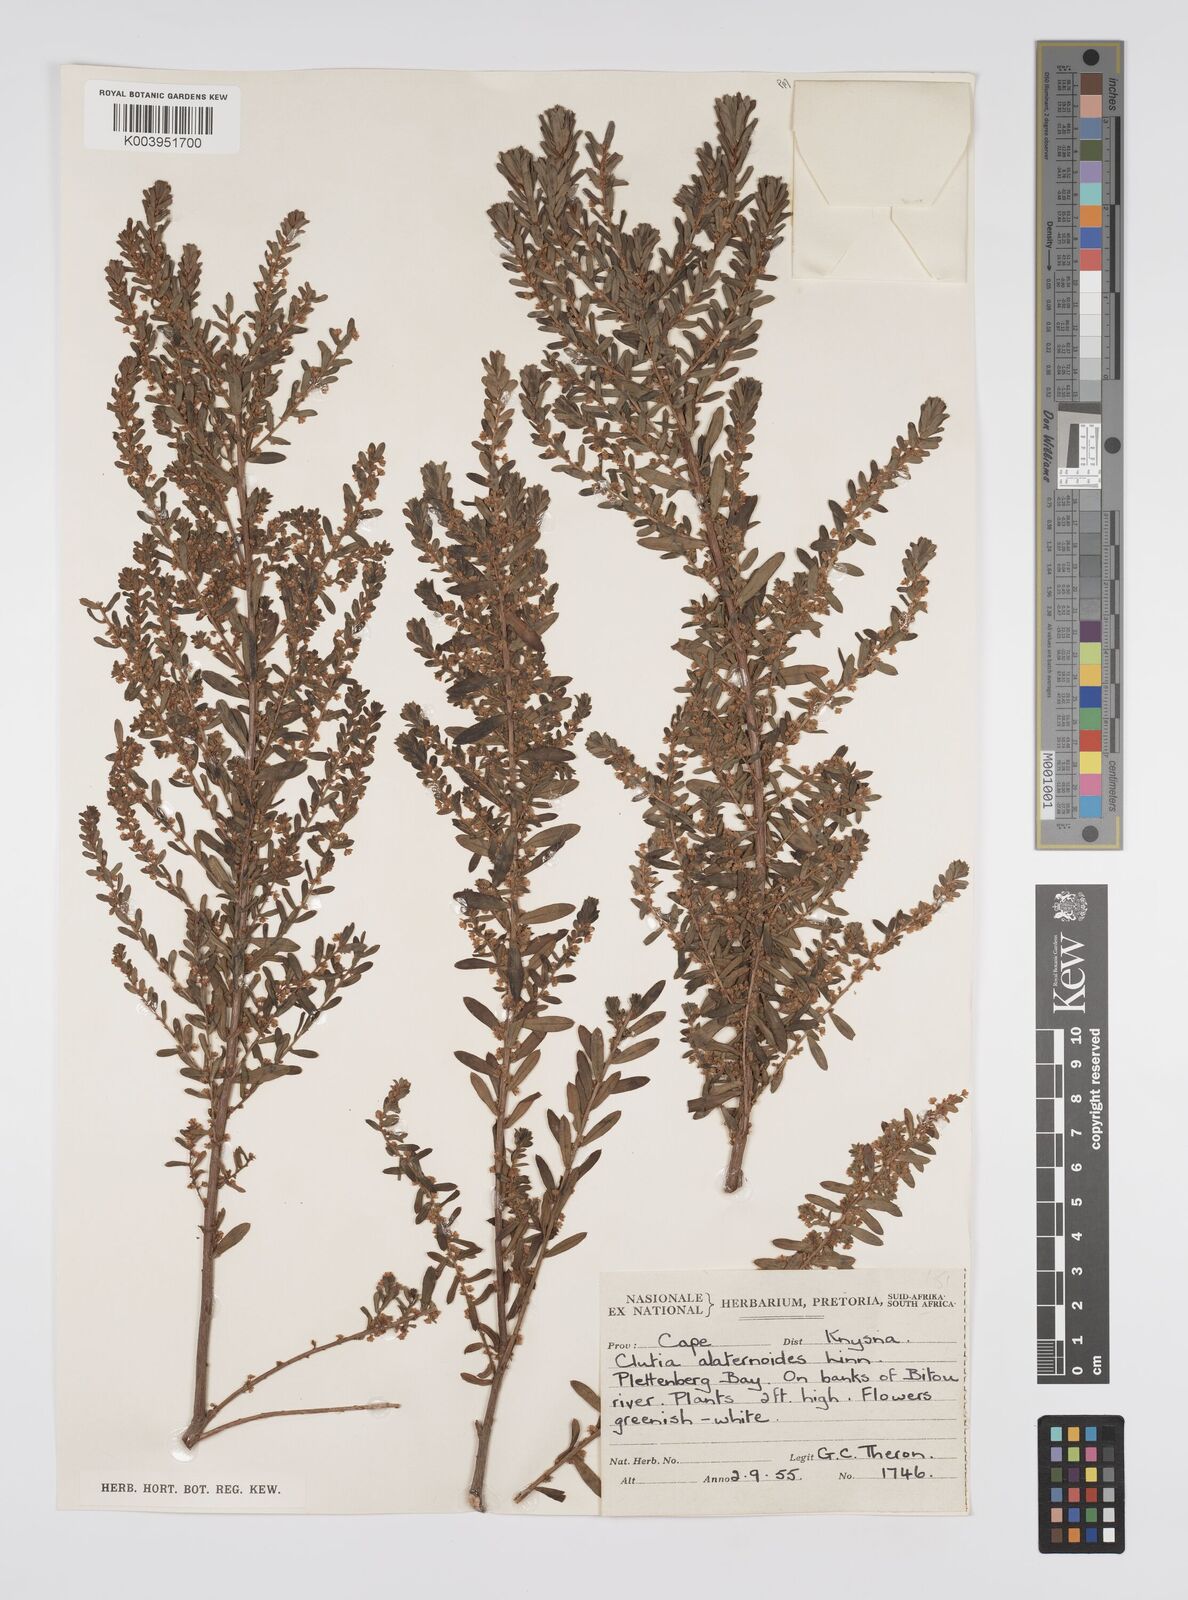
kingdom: Plantae
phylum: Tracheophyta
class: Magnoliopsida
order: Malpighiales
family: Peraceae
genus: Clutia
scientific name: Clutia alaternoides
